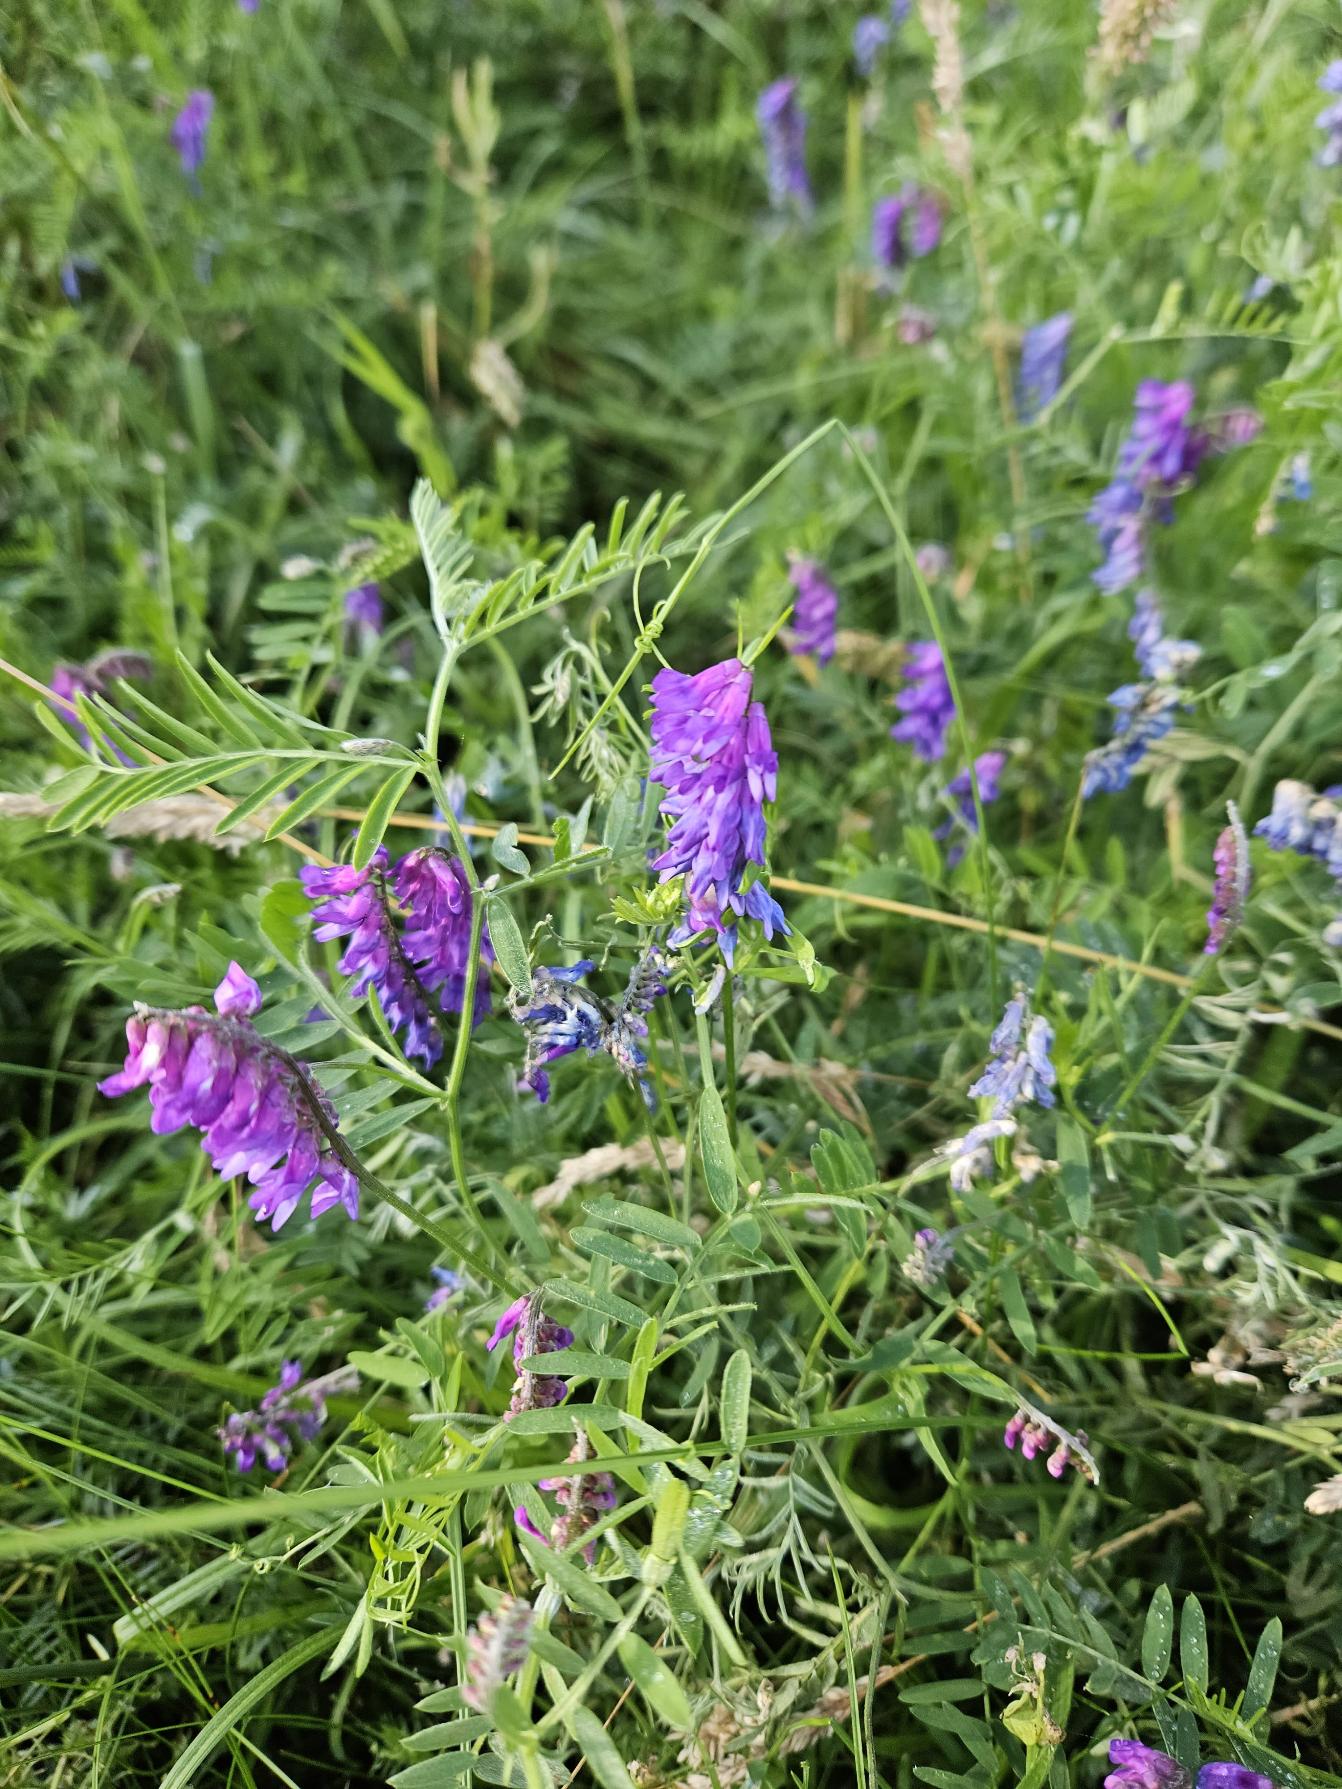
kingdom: Plantae
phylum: Tracheophyta
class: Magnoliopsida
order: Fabales
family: Fabaceae
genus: Vicia
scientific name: Vicia cracca
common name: Muse-vikke
